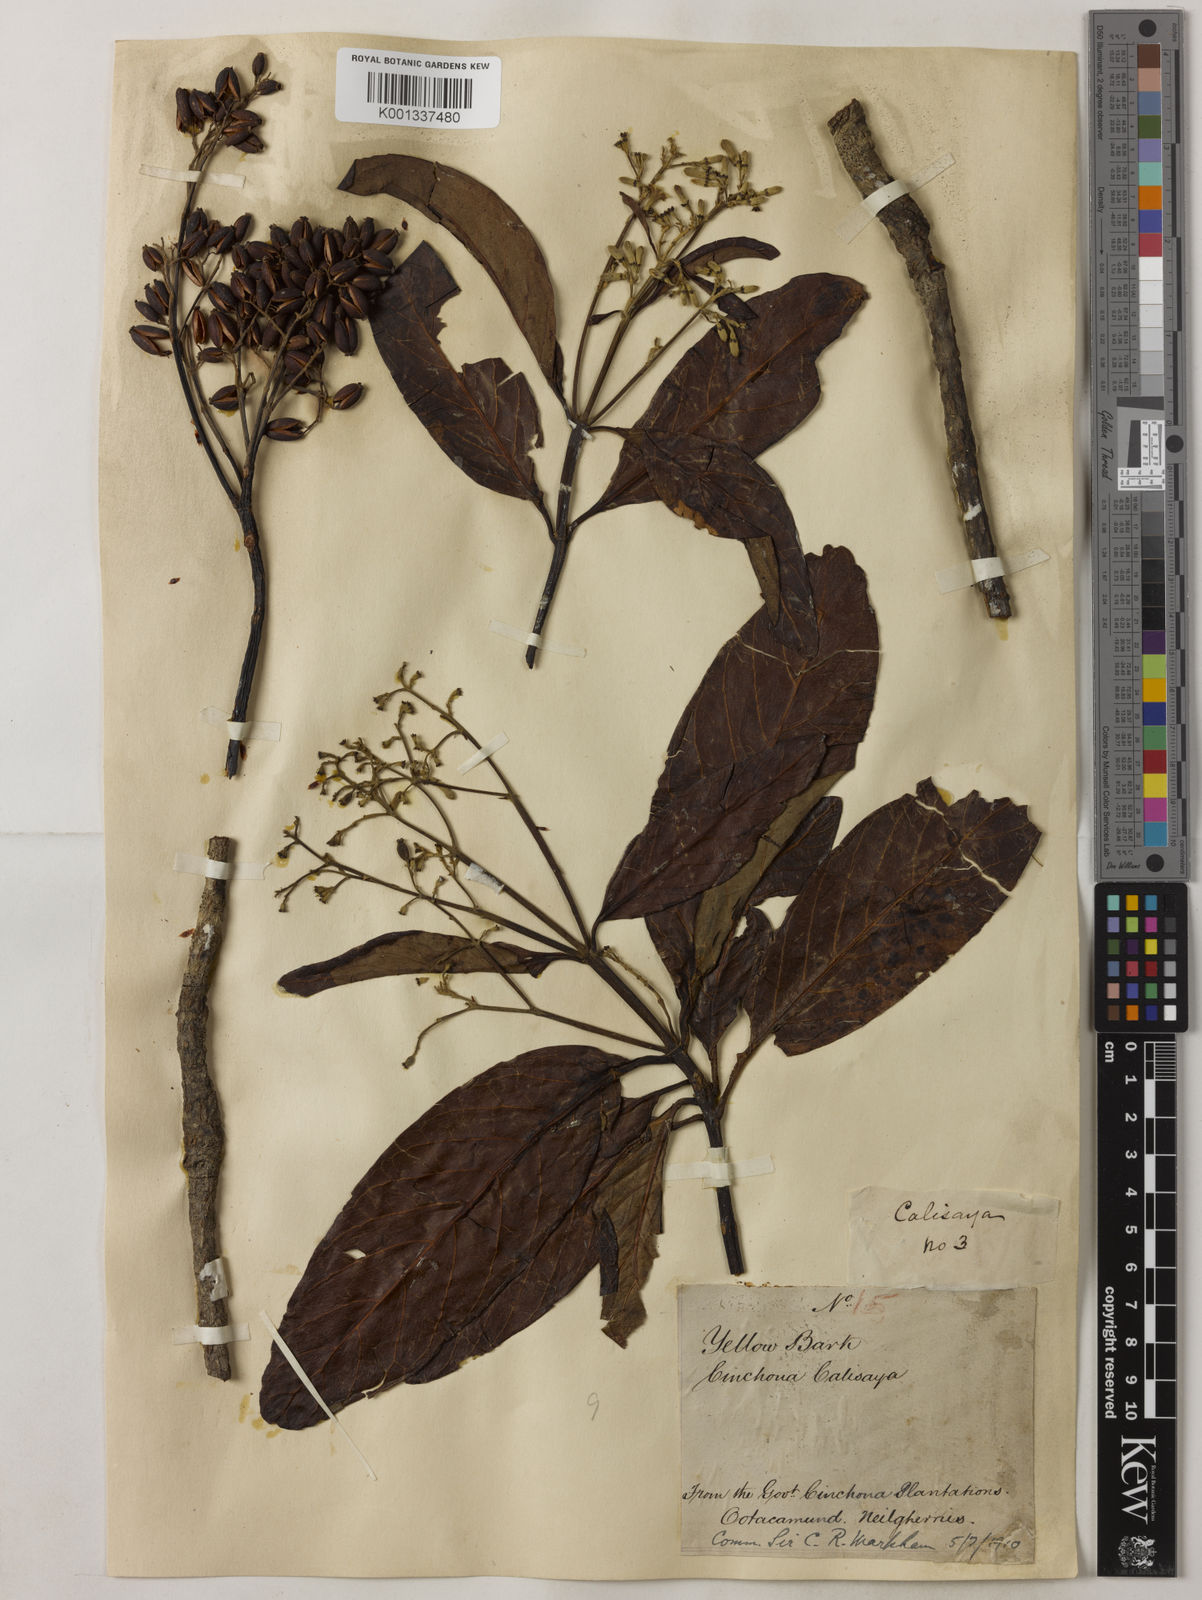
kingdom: Plantae
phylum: Tracheophyta
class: Magnoliopsida
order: Gentianales
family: Rubiaceae
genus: Cinchona
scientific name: Cinchona calisaya
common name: Ledgerbark
